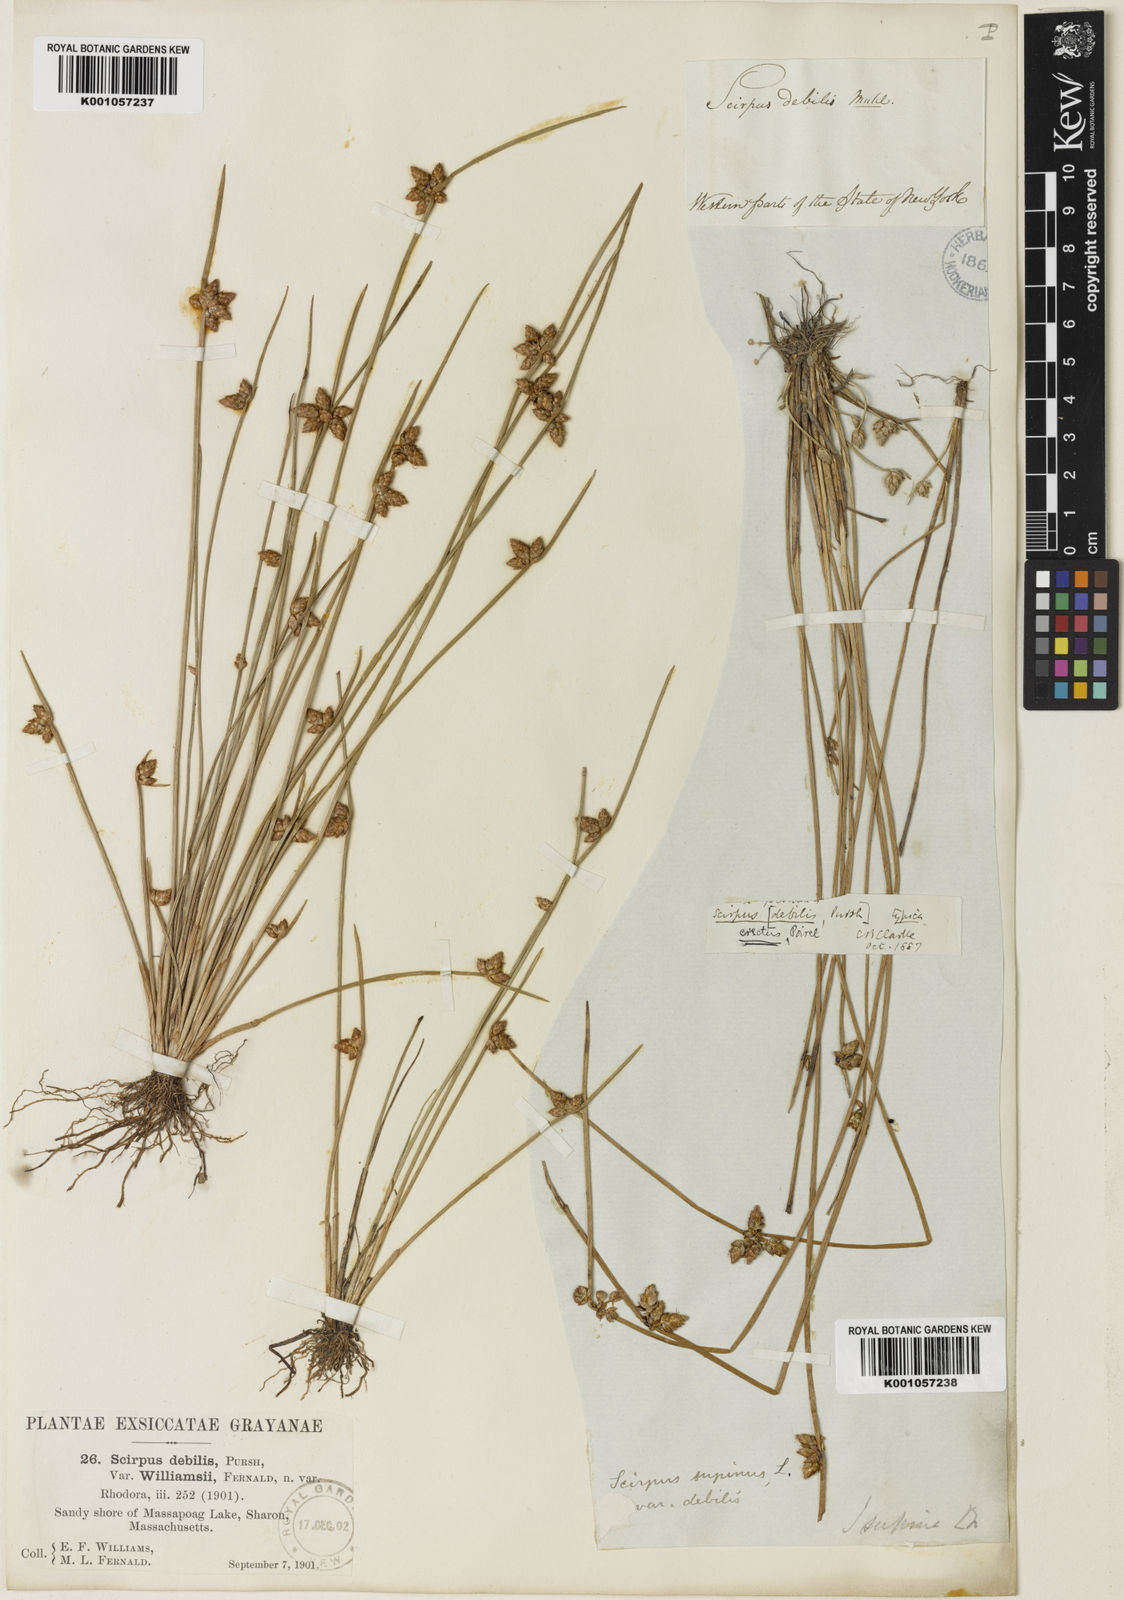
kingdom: Plantae
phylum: Tracheophyta
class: Liliopsida
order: Poales
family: Cyperaceae
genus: Schoenoplectus
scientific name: Schoenoplectus
